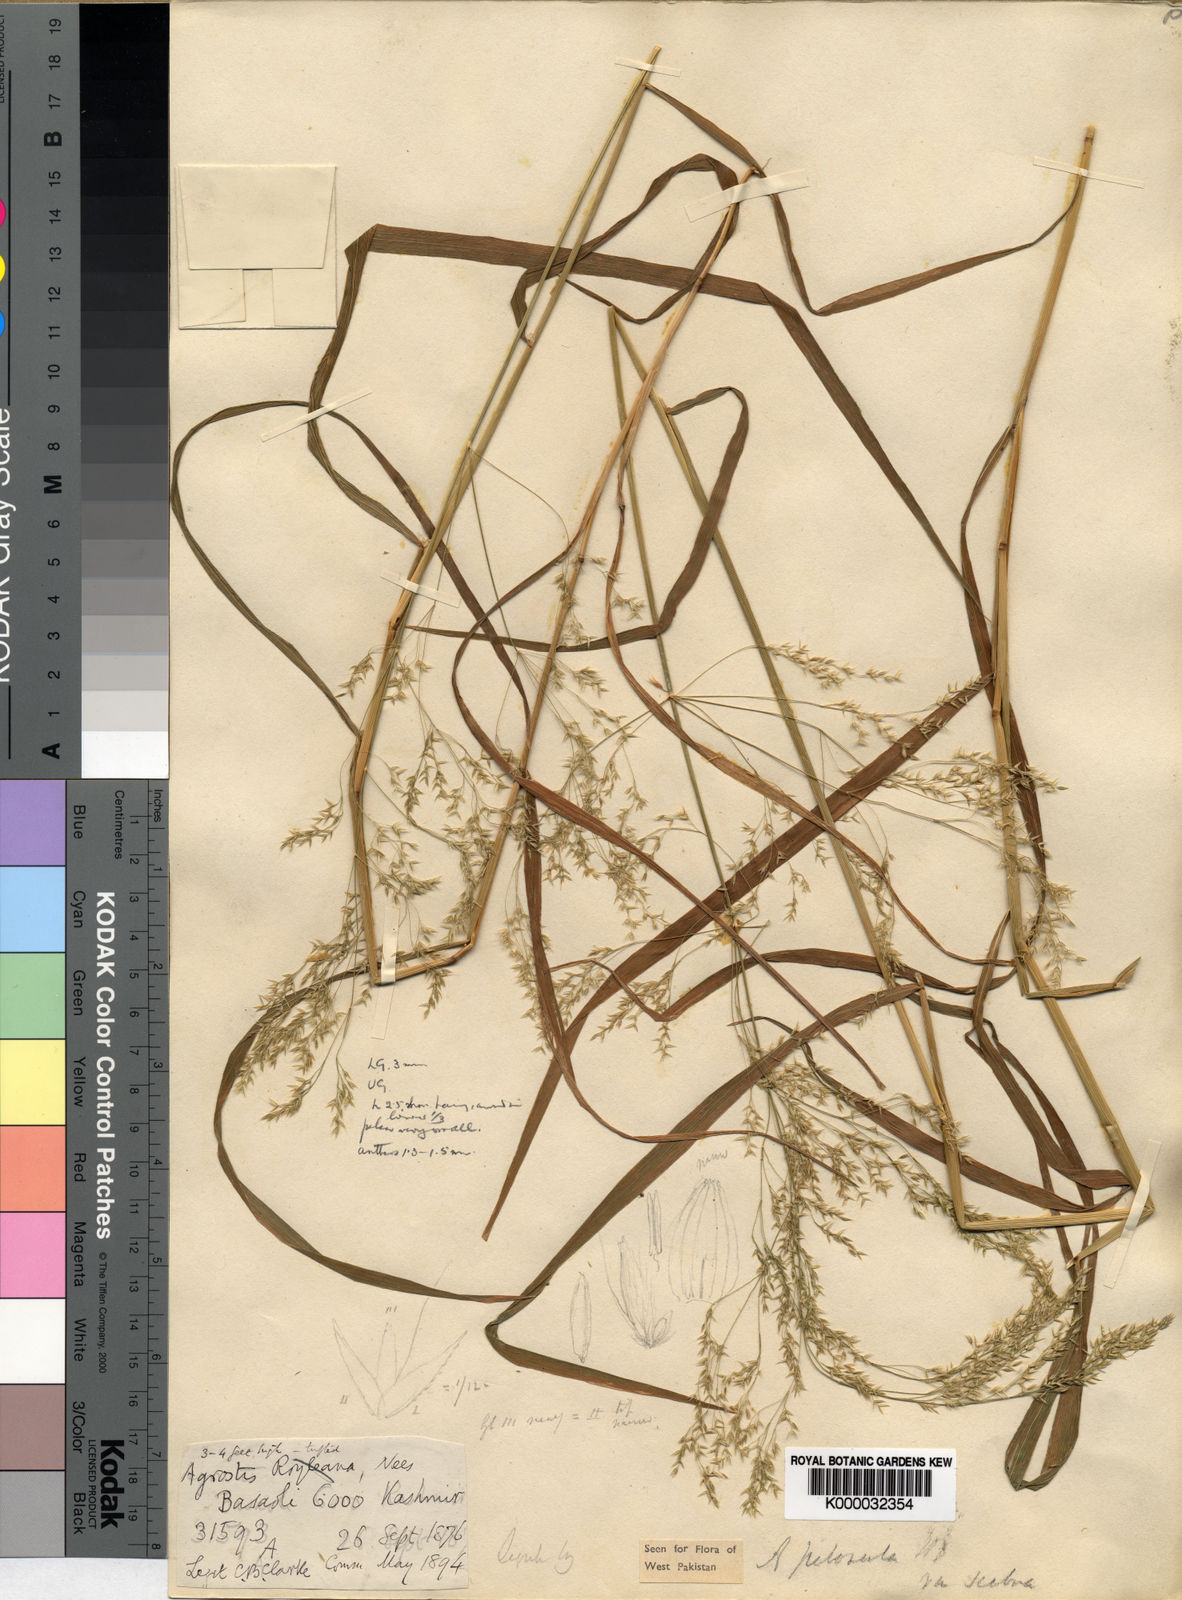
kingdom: Plantae
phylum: Tracheophyta
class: Liliopsida
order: Poales
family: Poaceae
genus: Agrostis
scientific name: Agrostis pilosula
